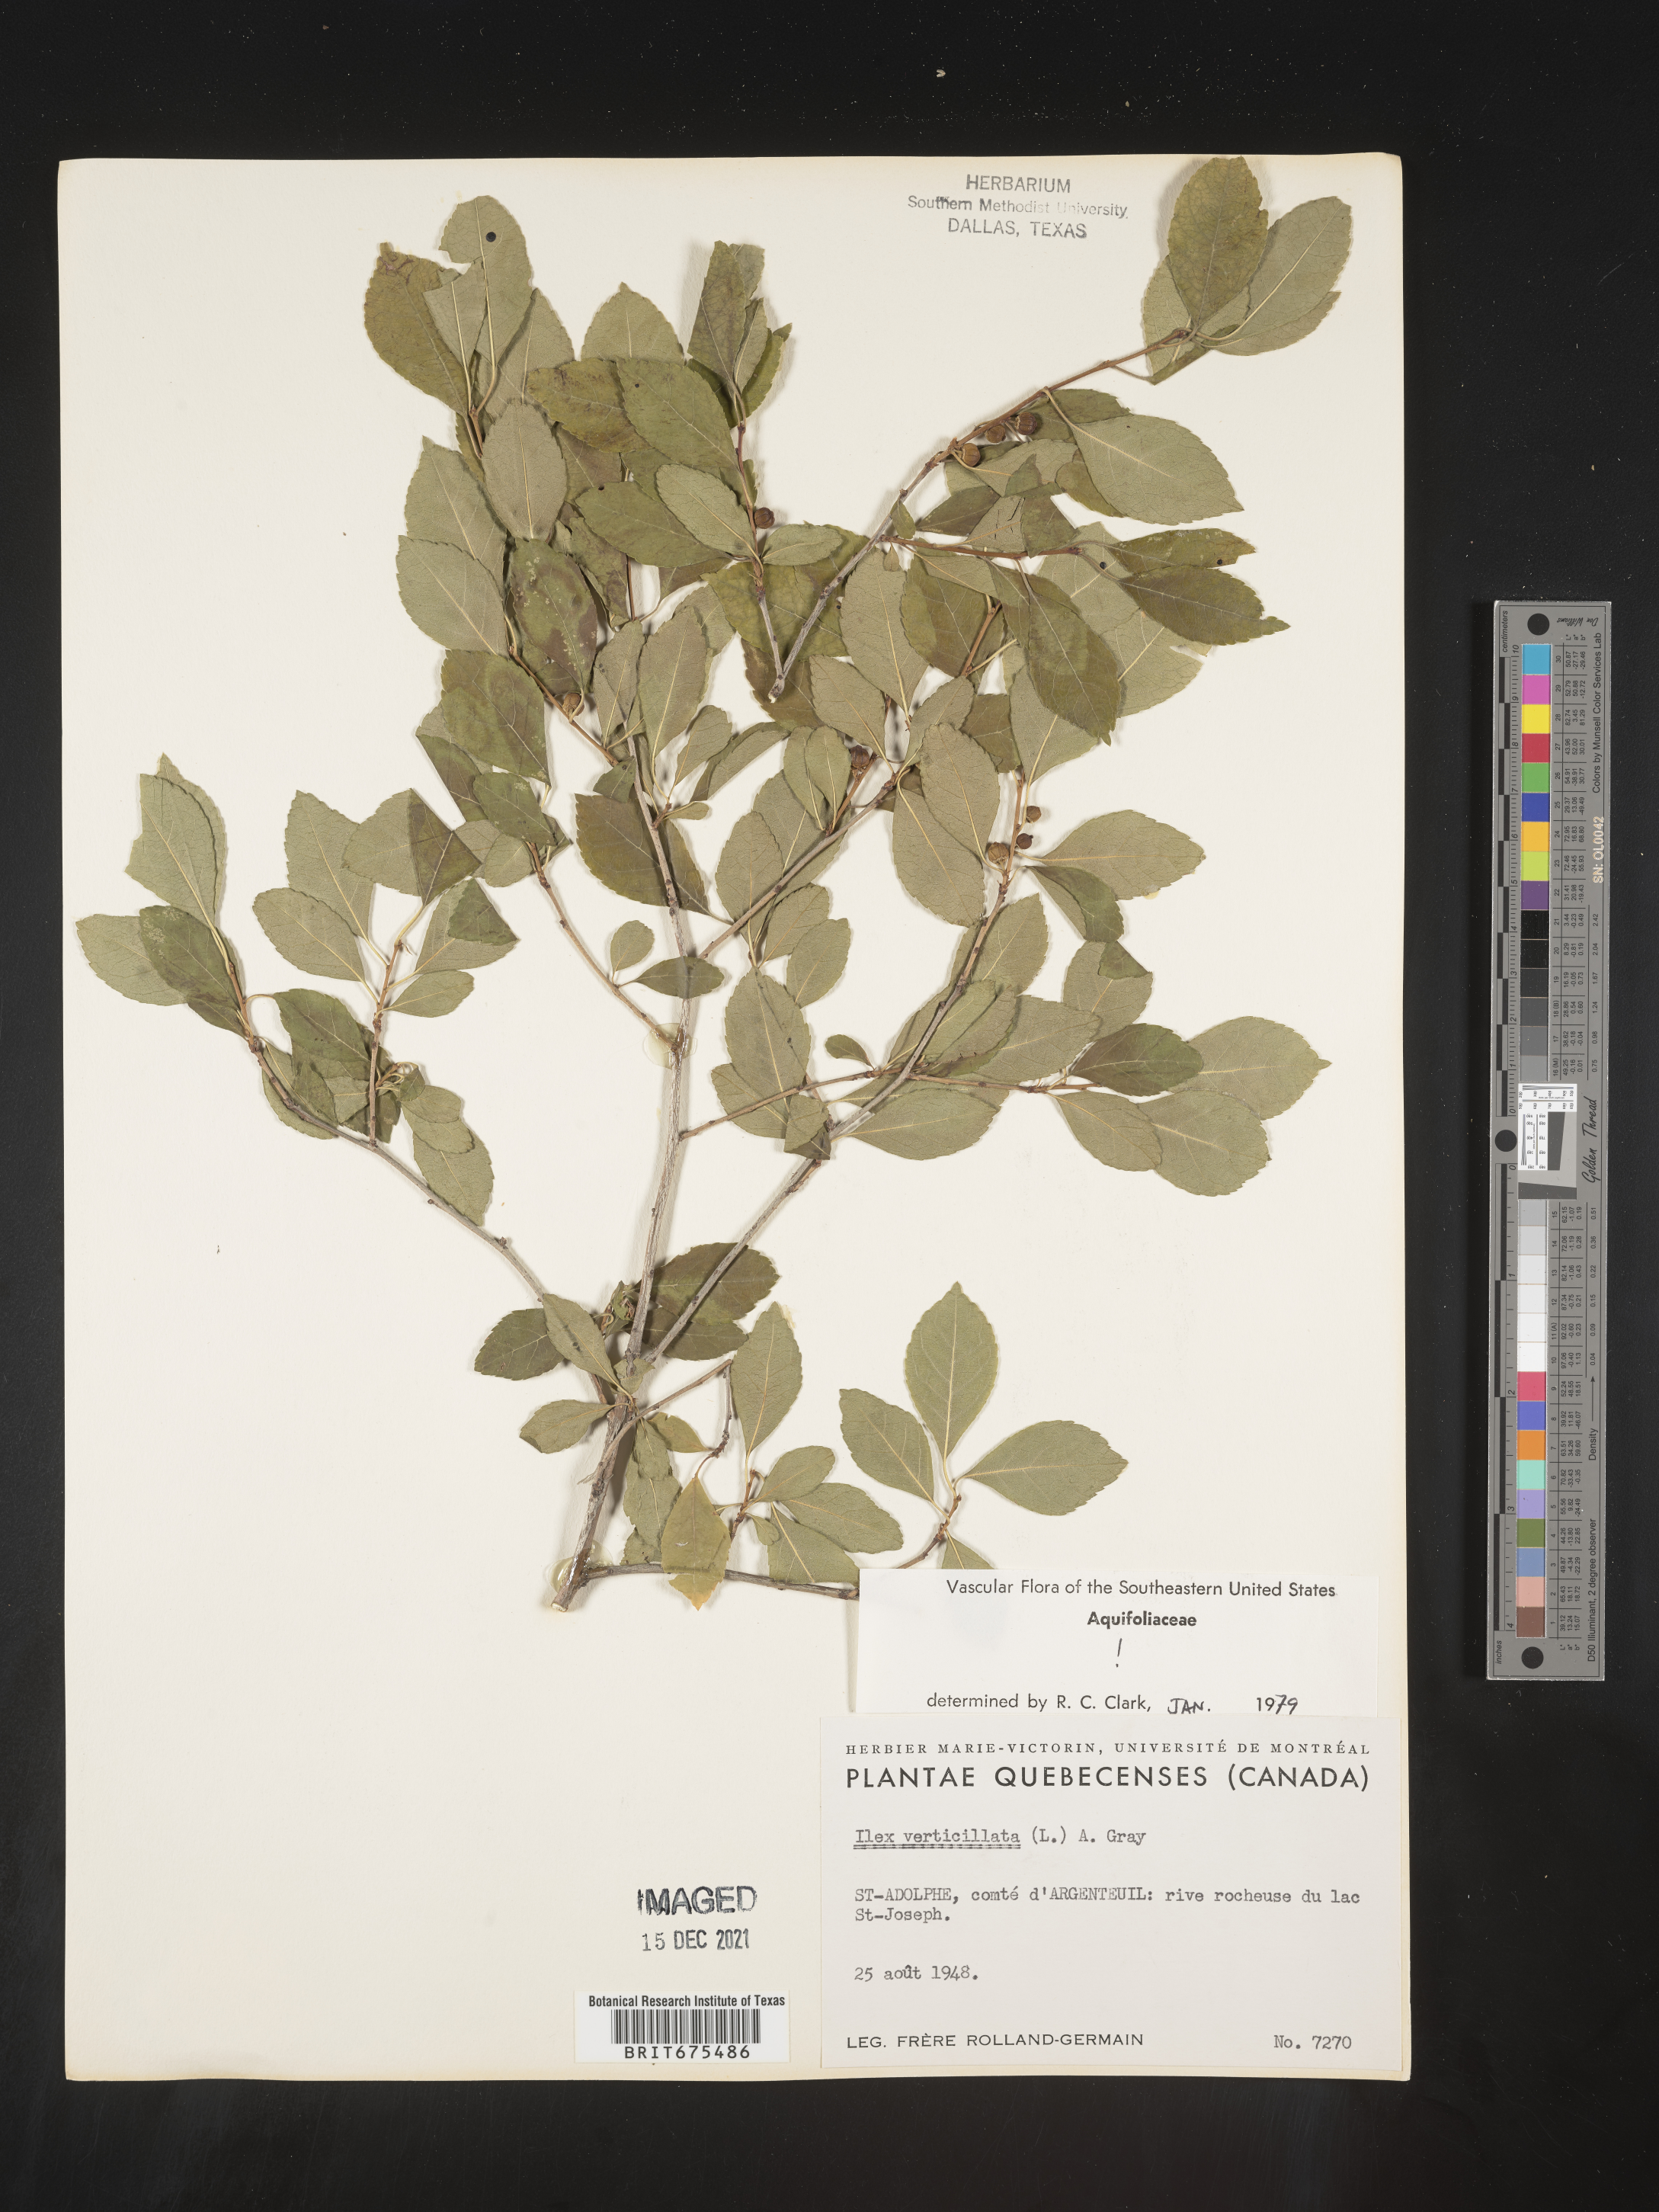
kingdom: Plantae
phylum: Tracheophyta
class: Magnoliopsida
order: Aquifoliales
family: Aquifoliaceae
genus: Ilex
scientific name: Ilex verticillata
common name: Virginia winterberry
